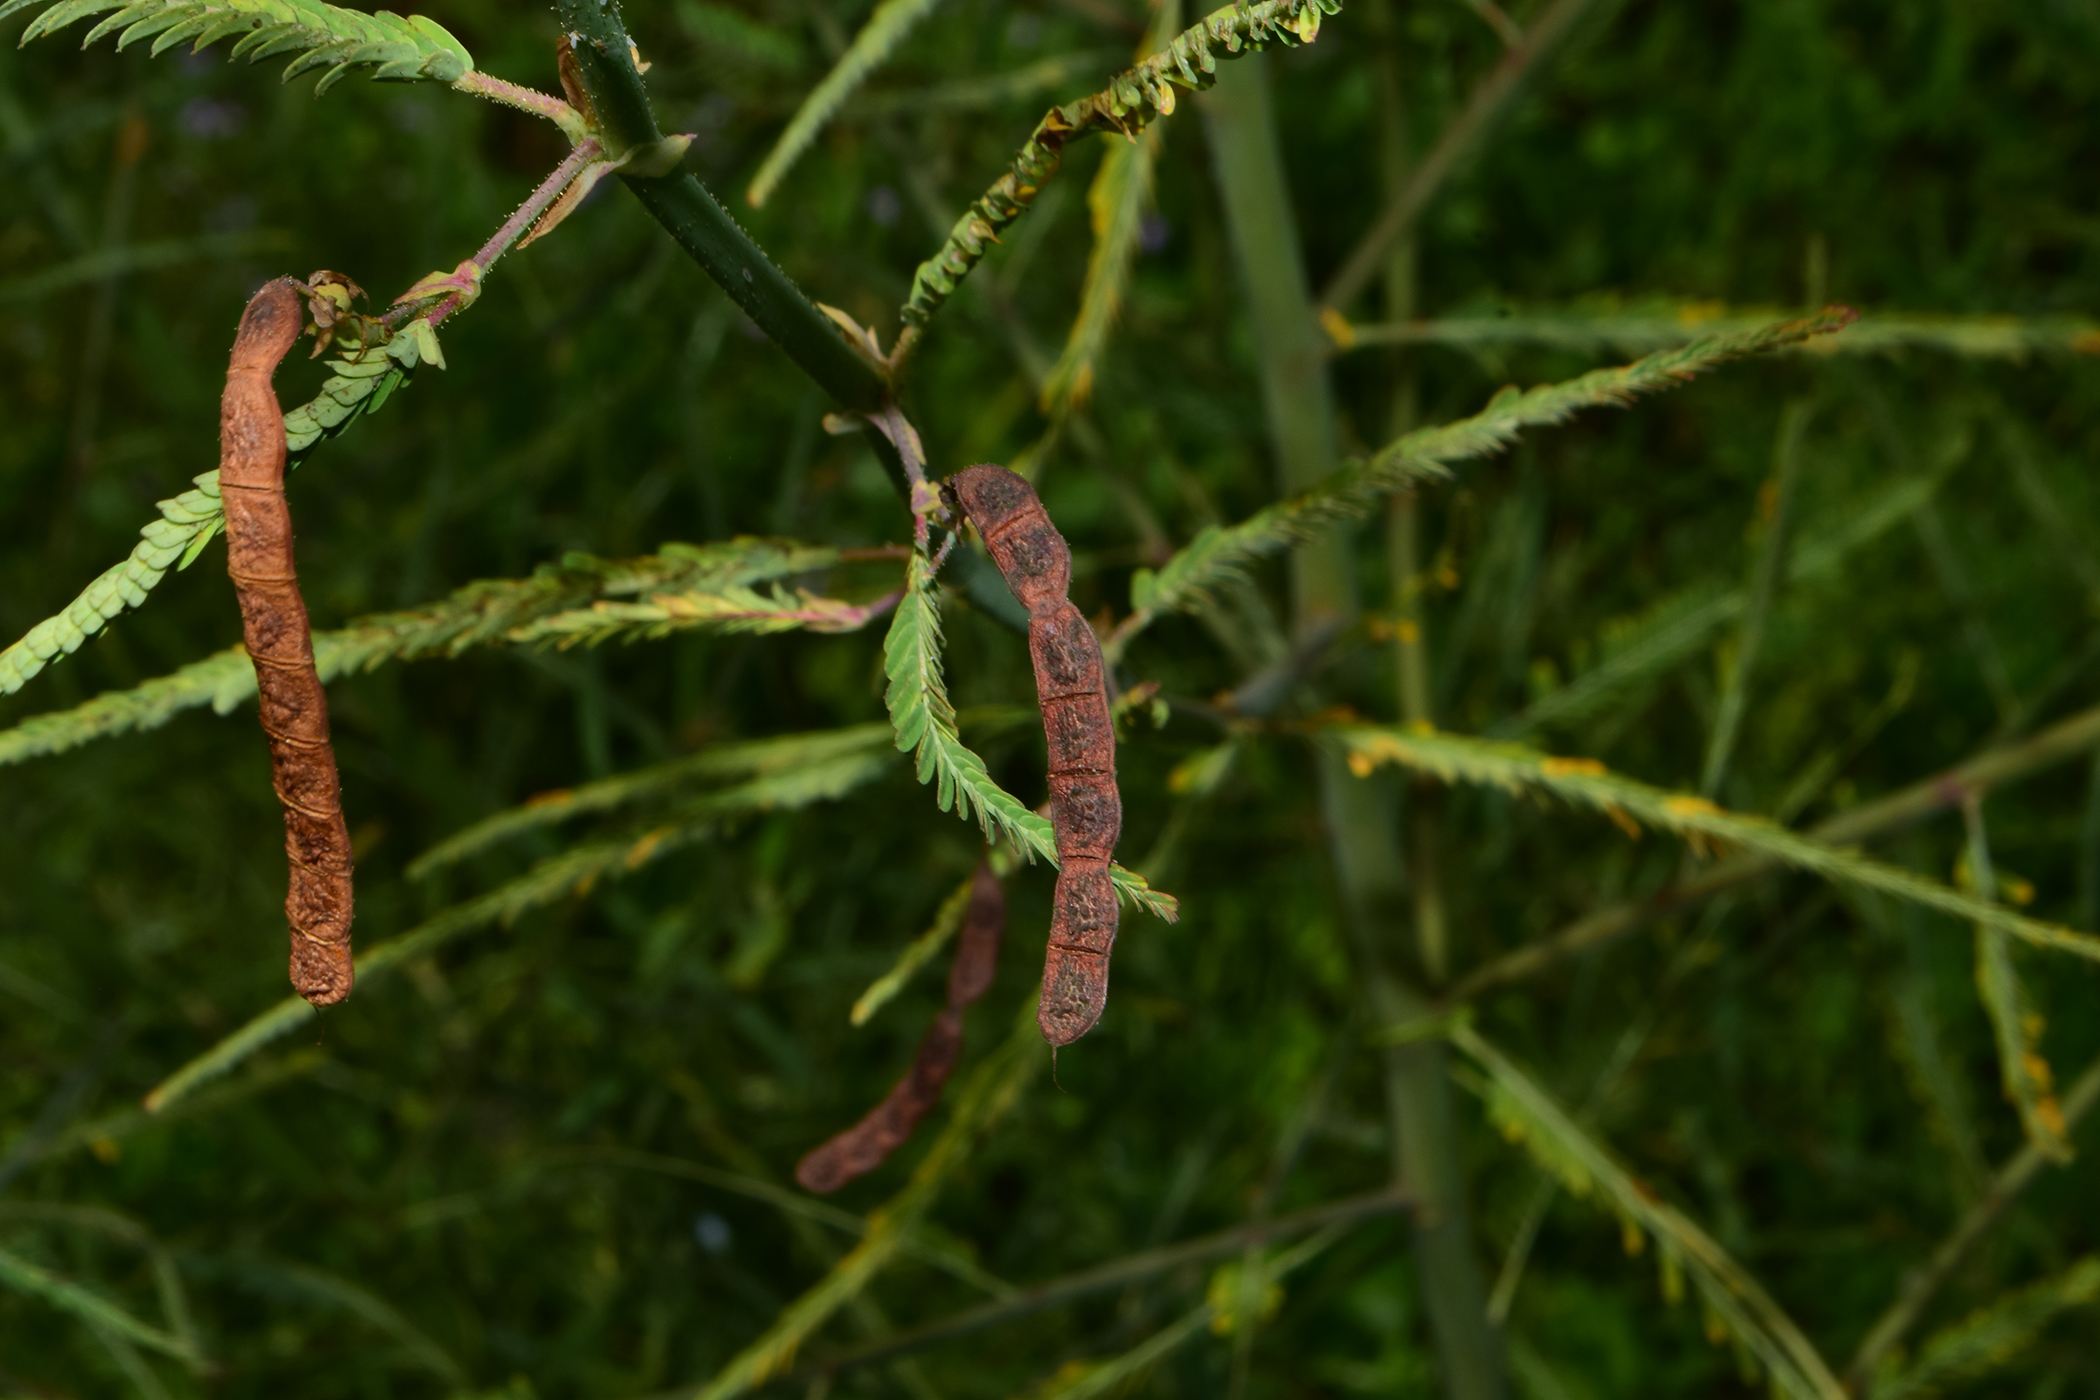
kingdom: Plantae
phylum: Tracheophyta
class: Magnoliopsida
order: Fabales
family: Fabaceae
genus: Aeschynomene
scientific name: Aeschynomene indica
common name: Indian jointvetch
